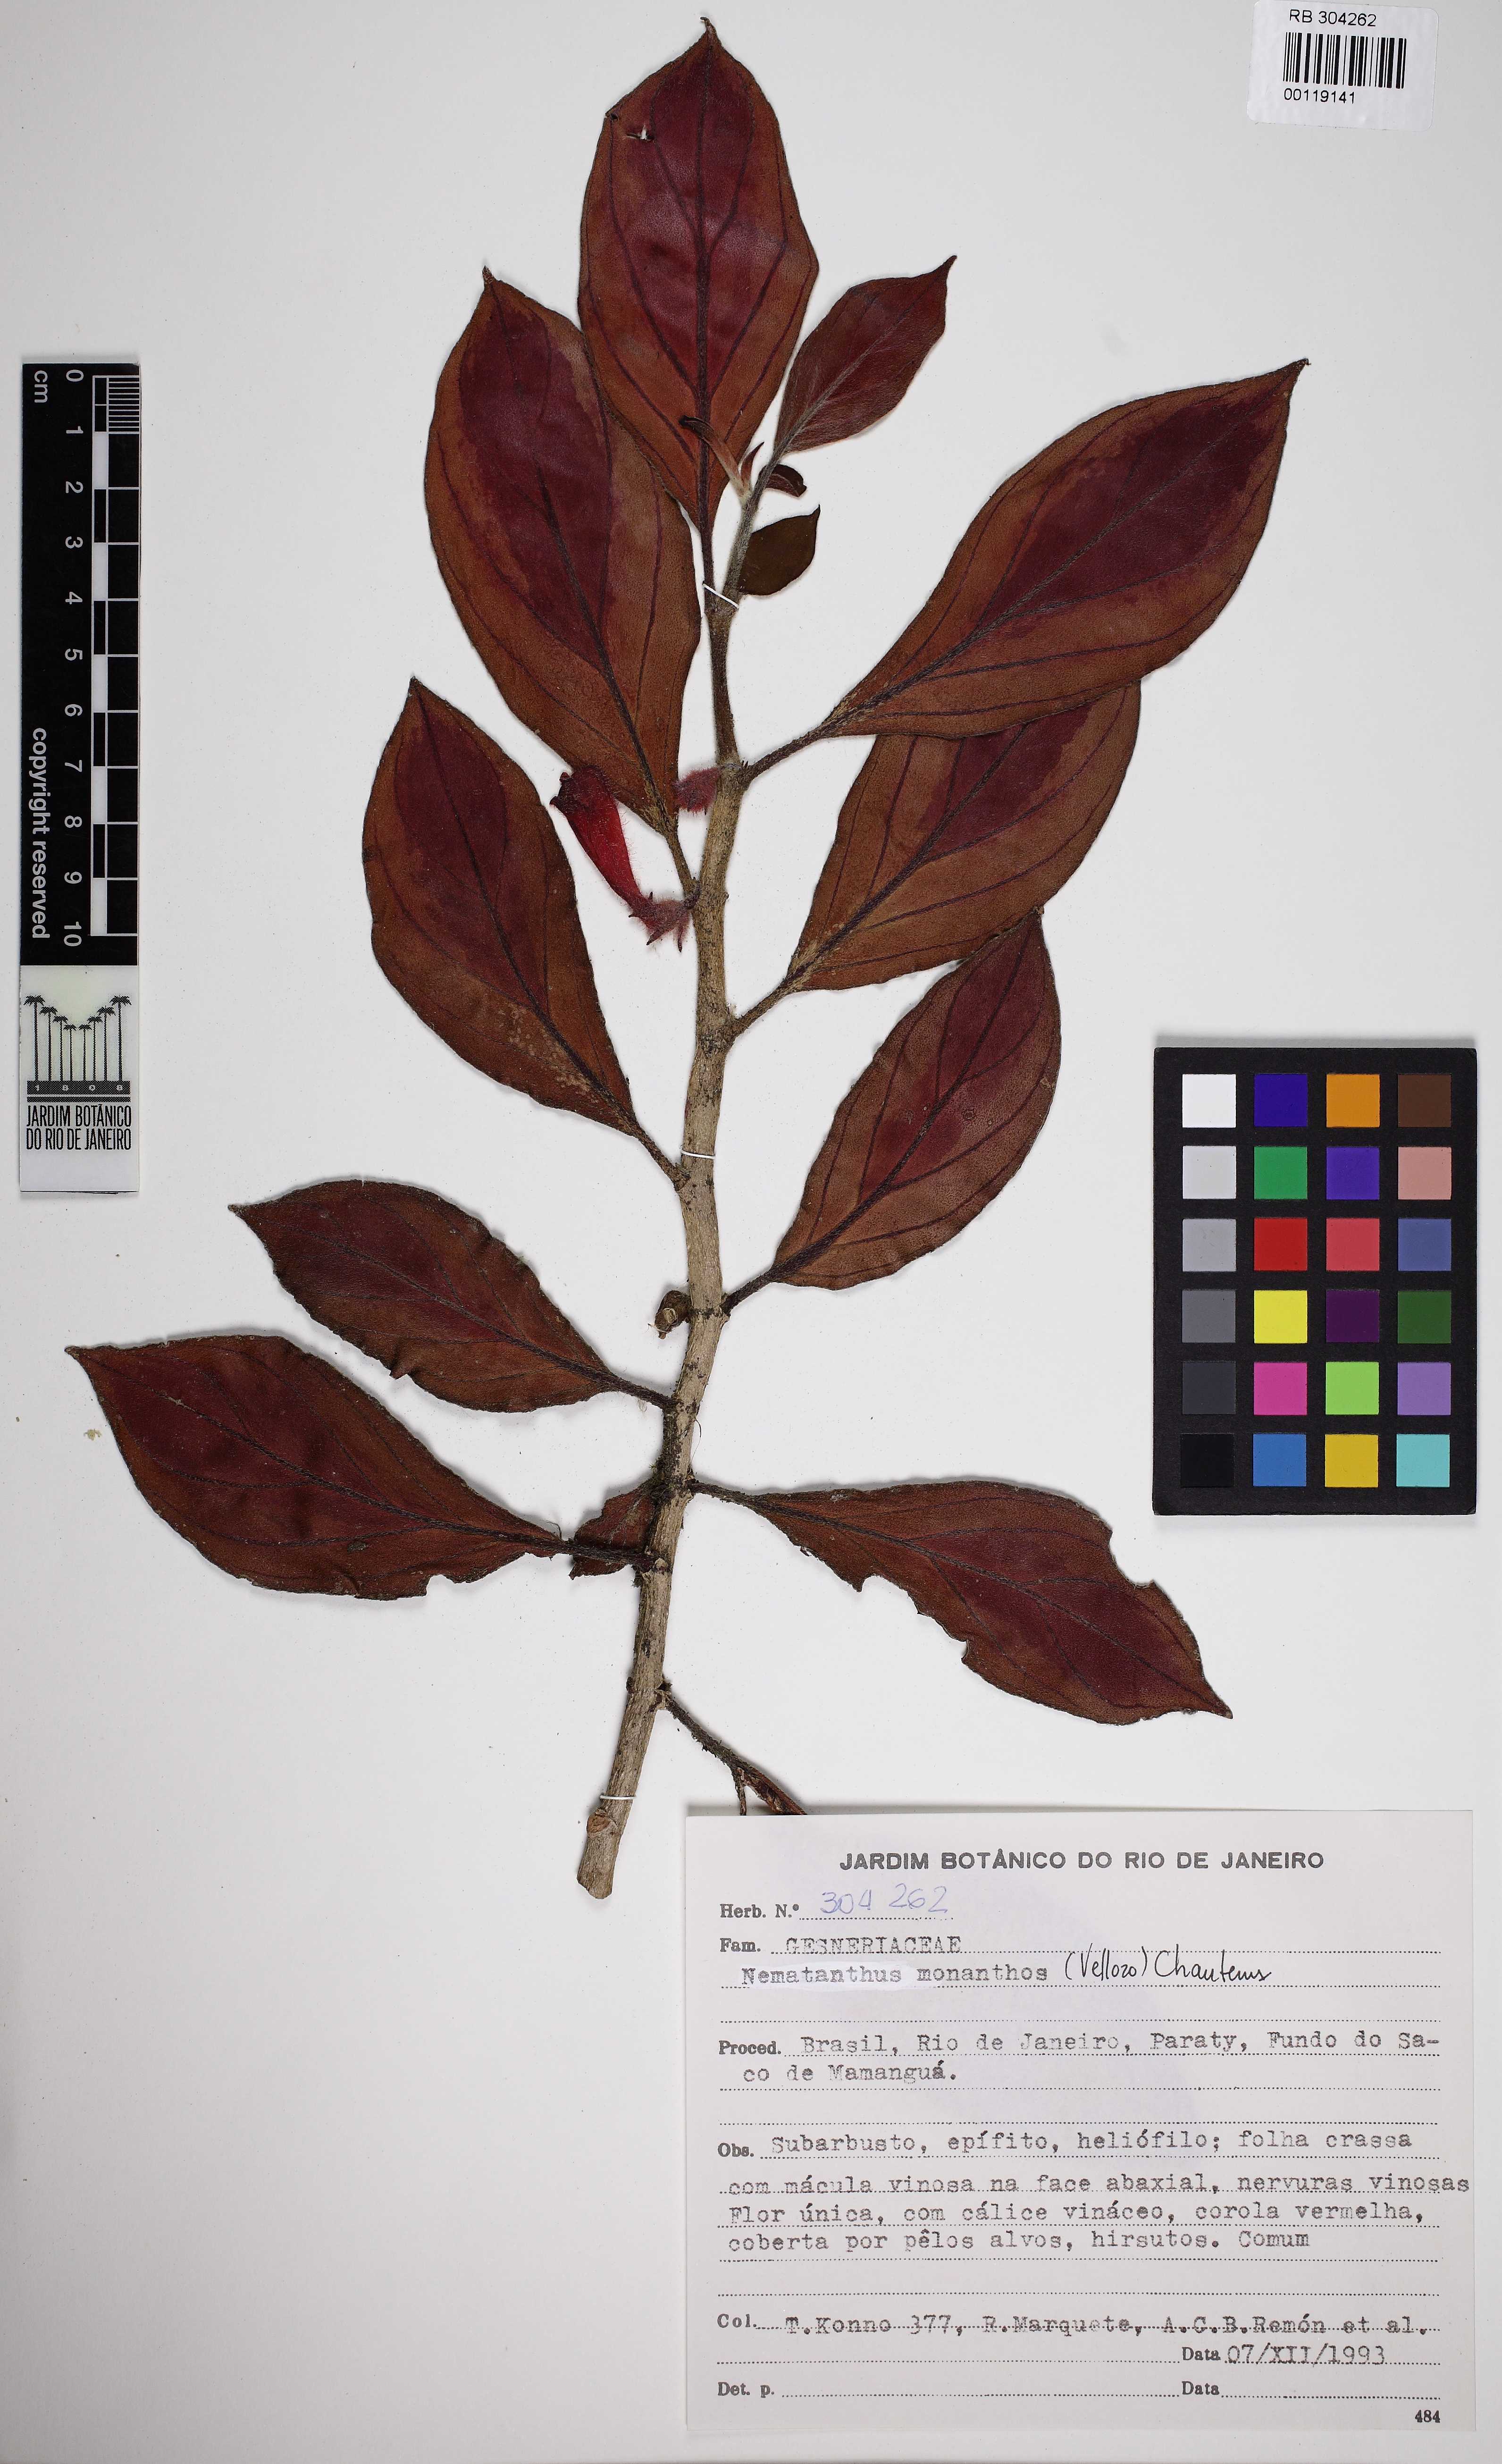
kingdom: Plantae
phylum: Tracheophyta
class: Magnoliopsida
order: Lamiales
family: Gesneriaceae
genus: Nematanthus
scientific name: Nematanthus monanthos
